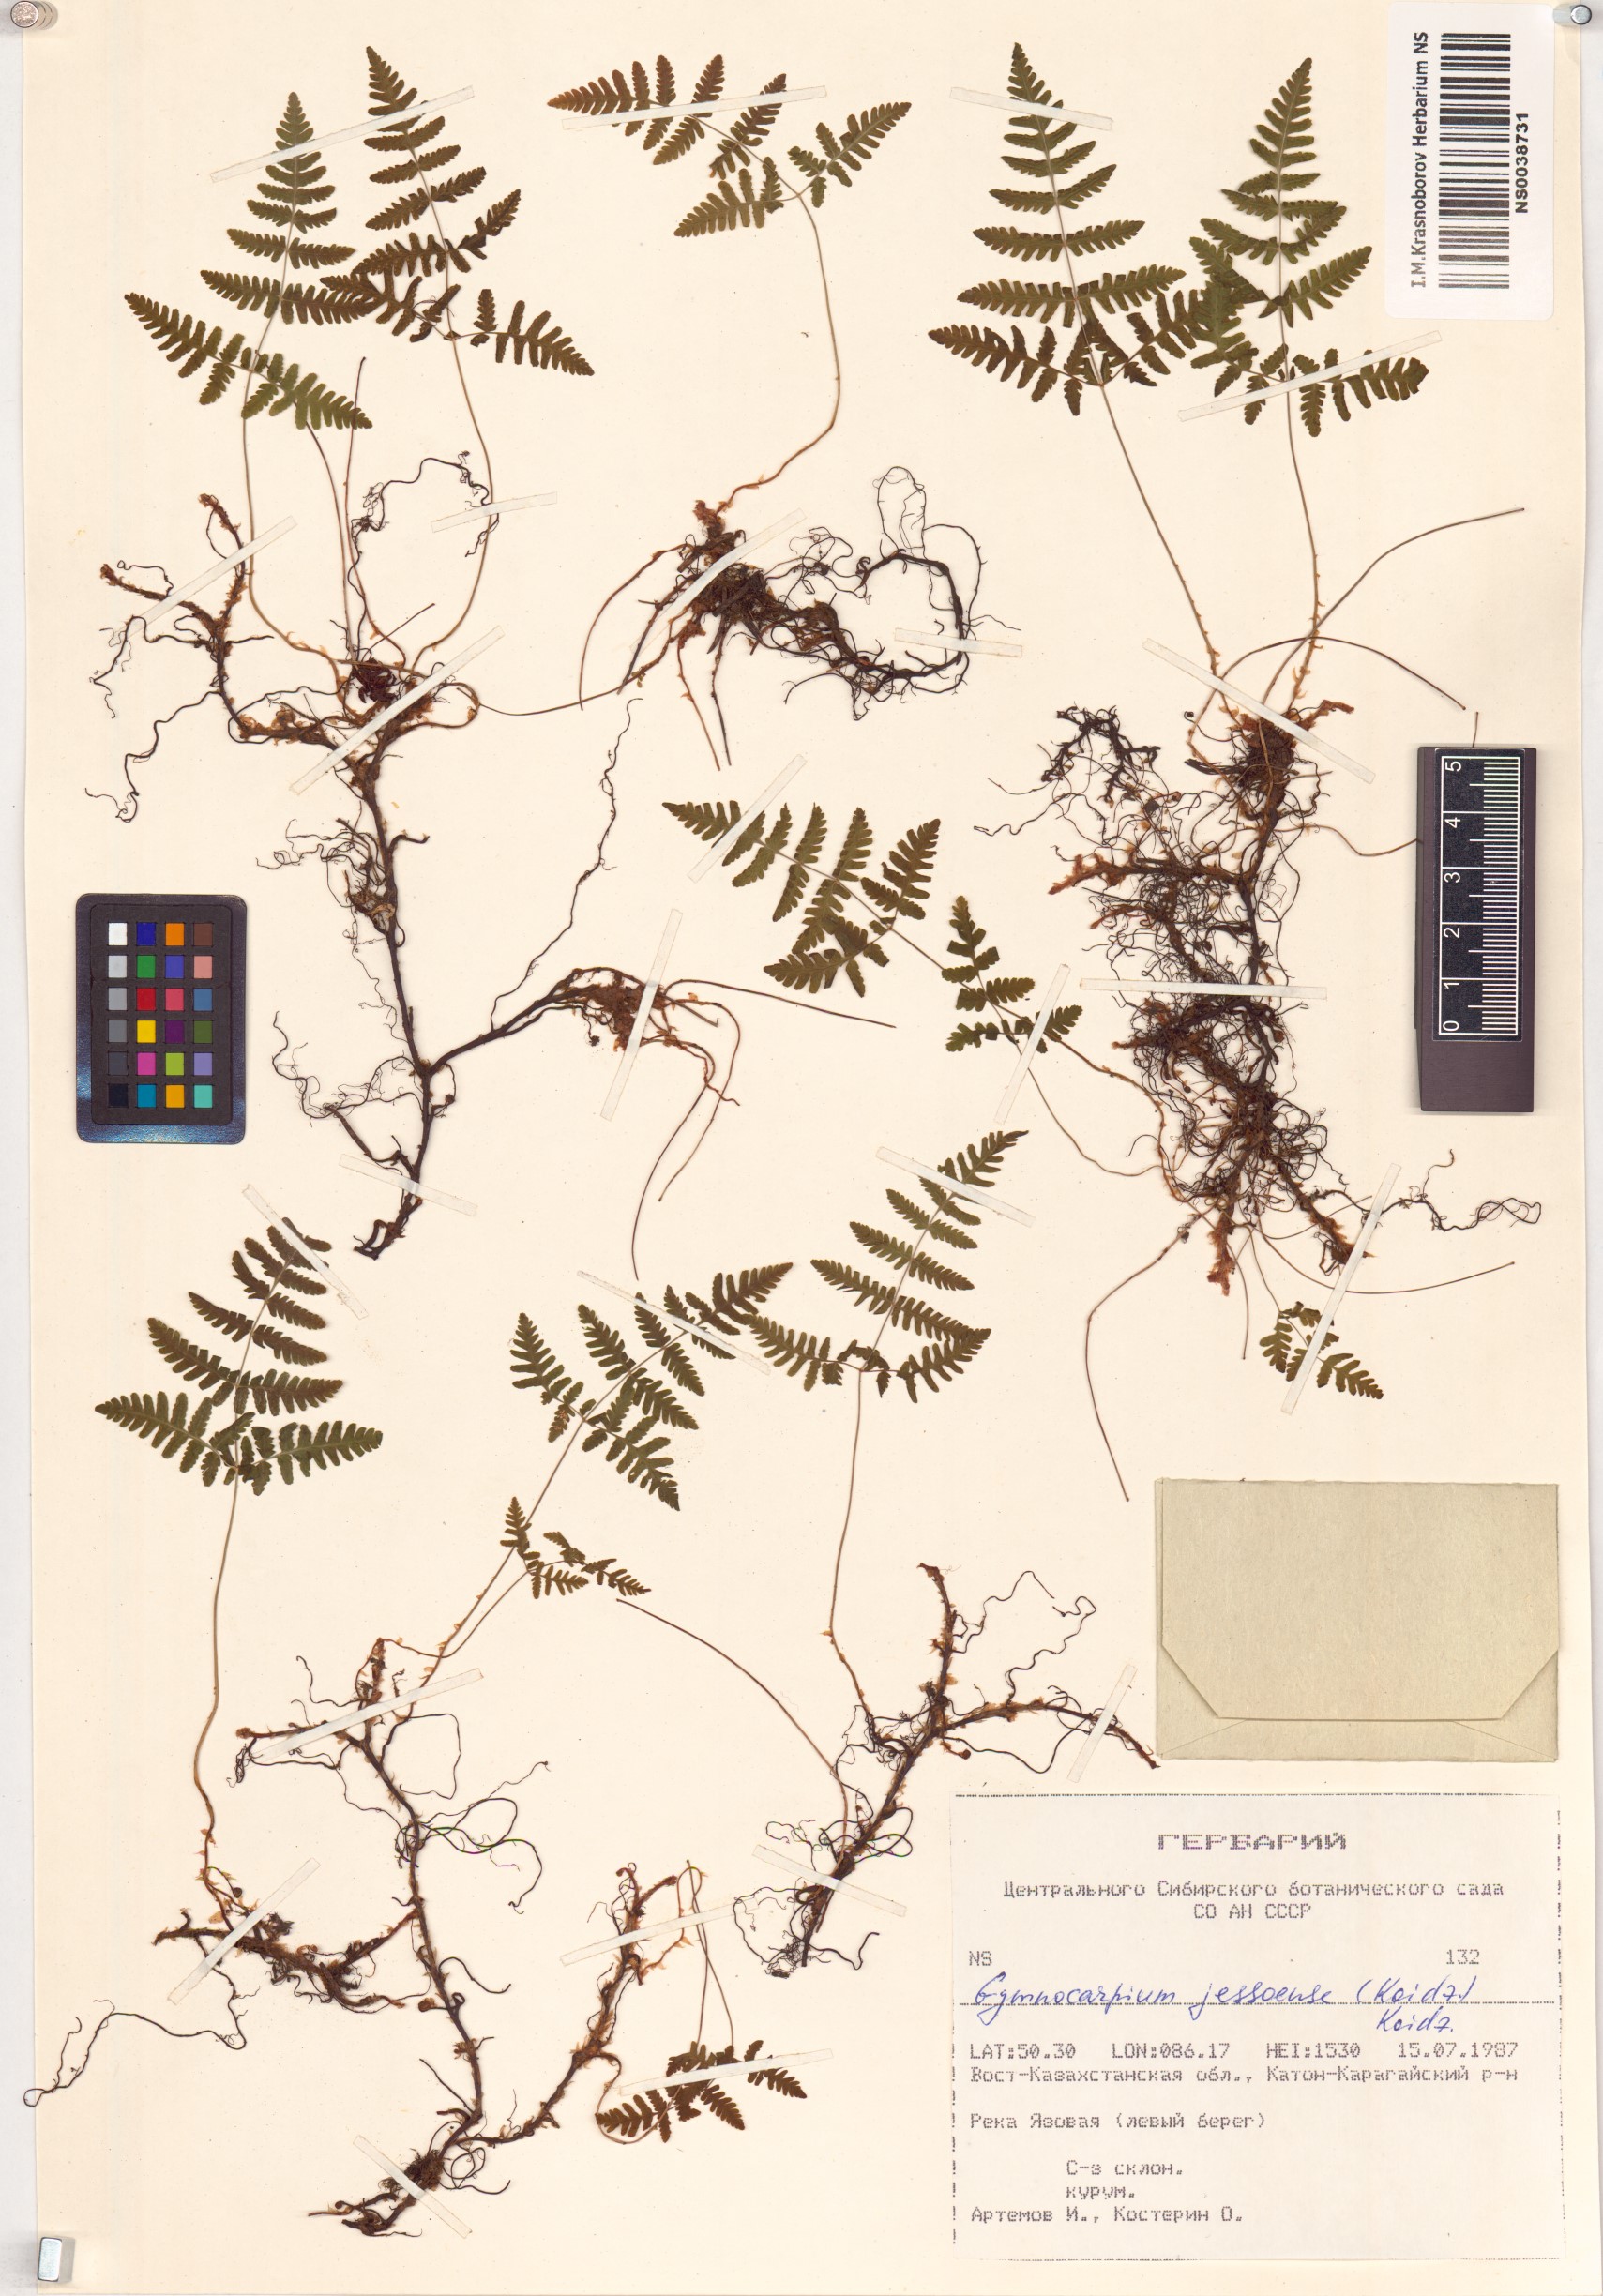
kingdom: Plantae
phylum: Tracheophyta
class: Polypodiopsida
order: Polypodiales
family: Cystopteridaceae
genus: Gymnocarpium
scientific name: Gymnocarpium jessoense
